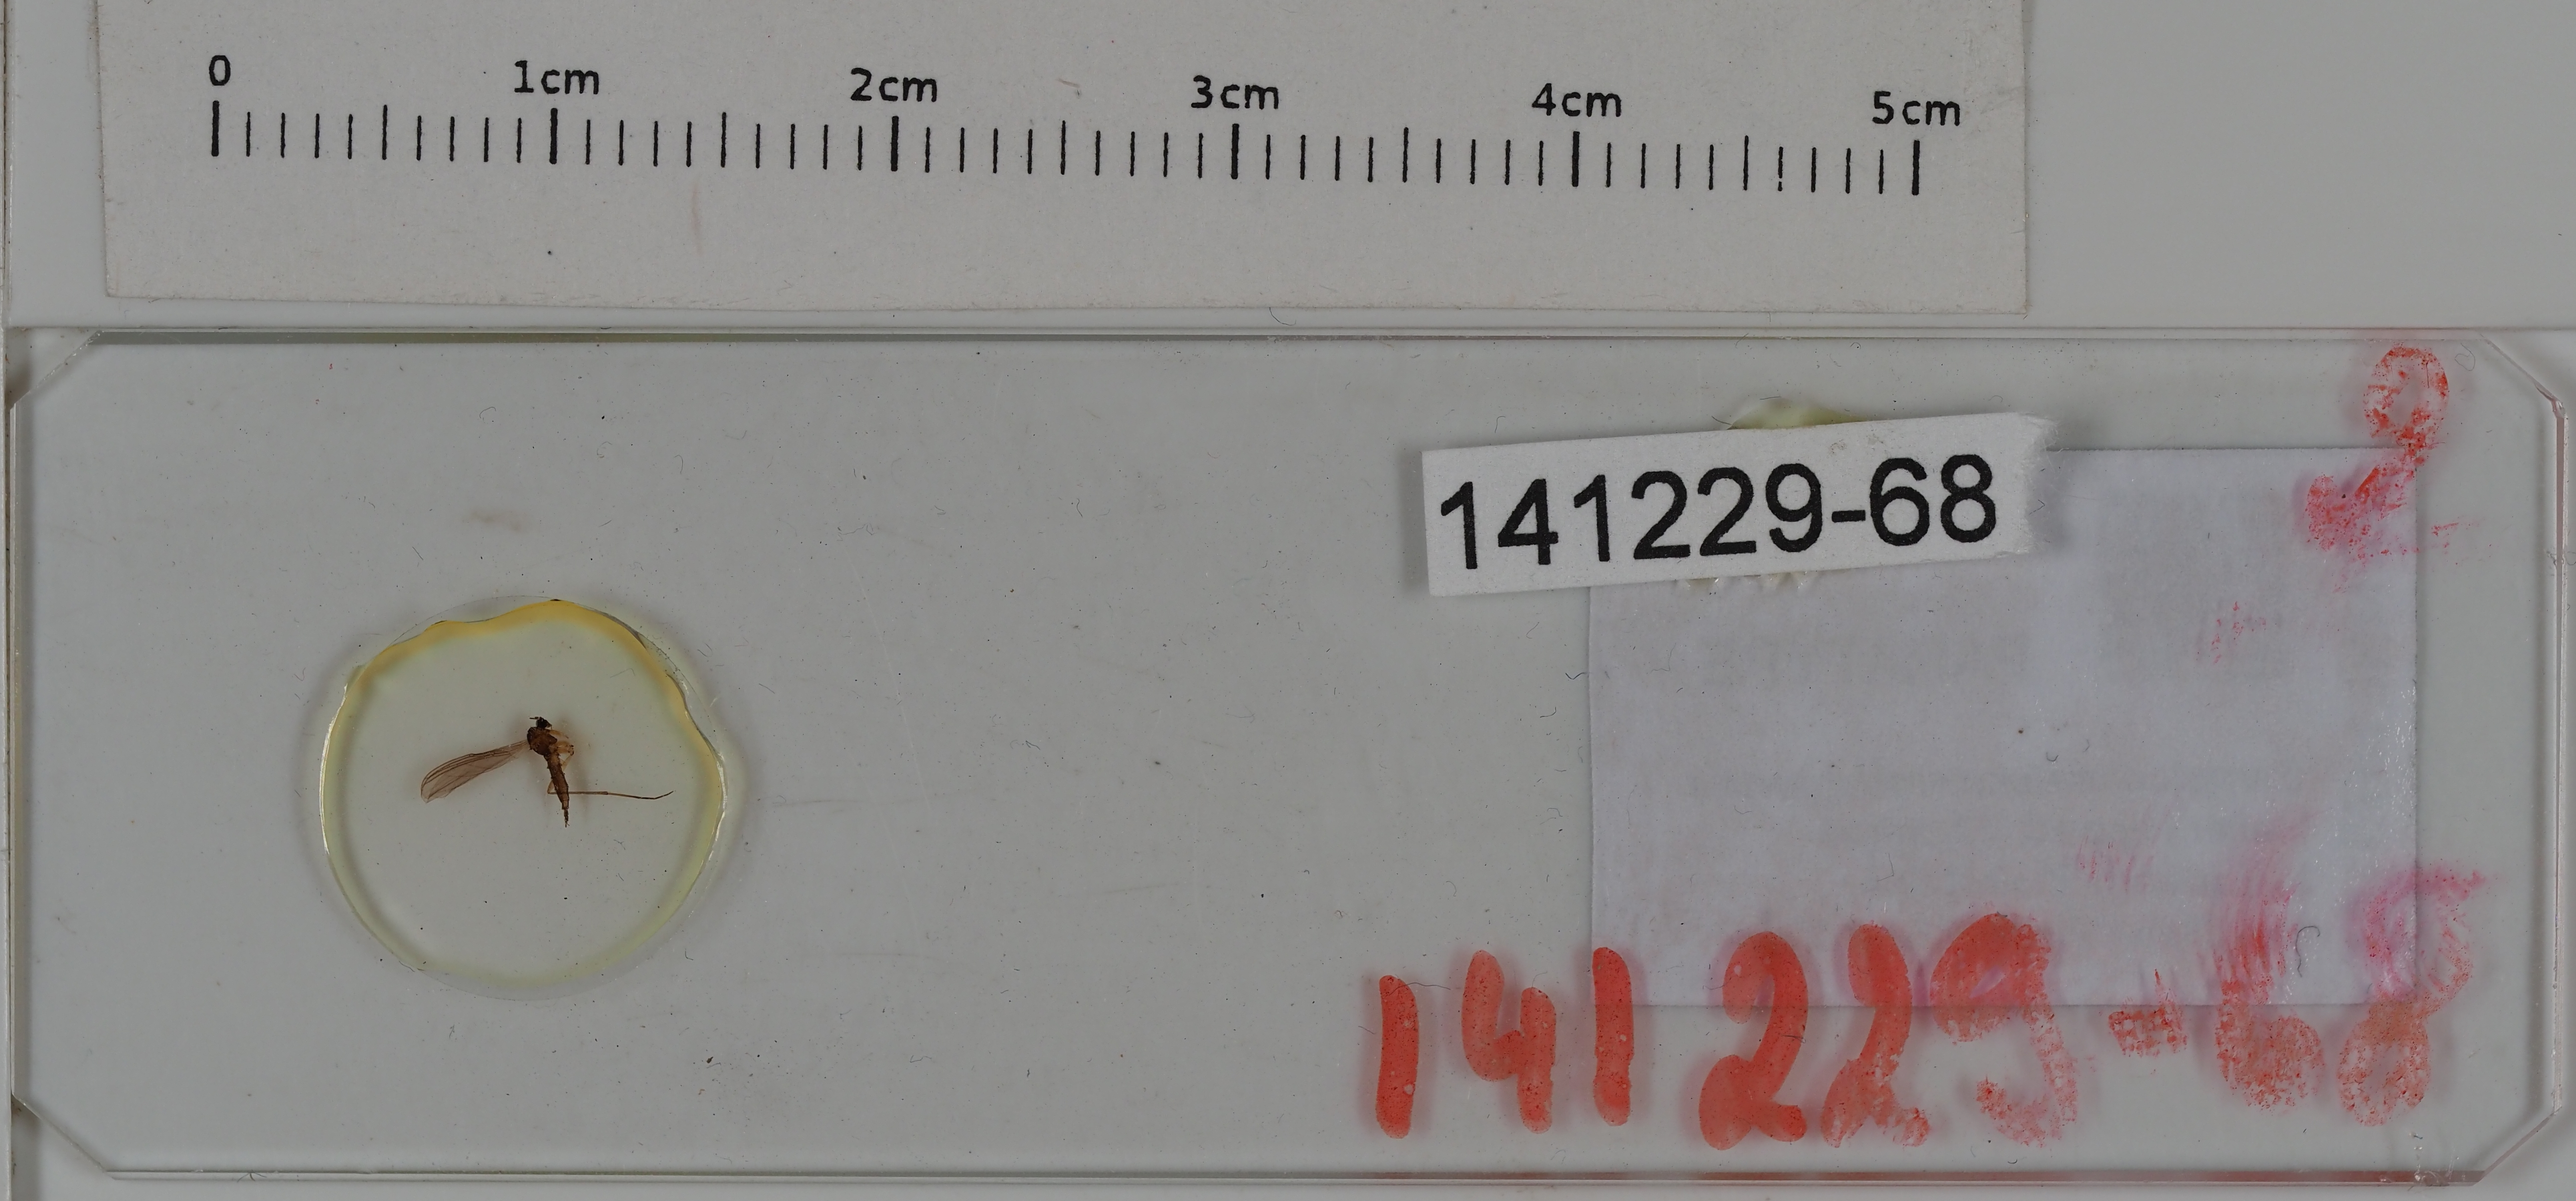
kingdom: Animalia
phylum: Arthropoda
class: Insecta
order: Diptera
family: Sciaridae
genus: Camptochaeta
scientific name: Camptochaeta
